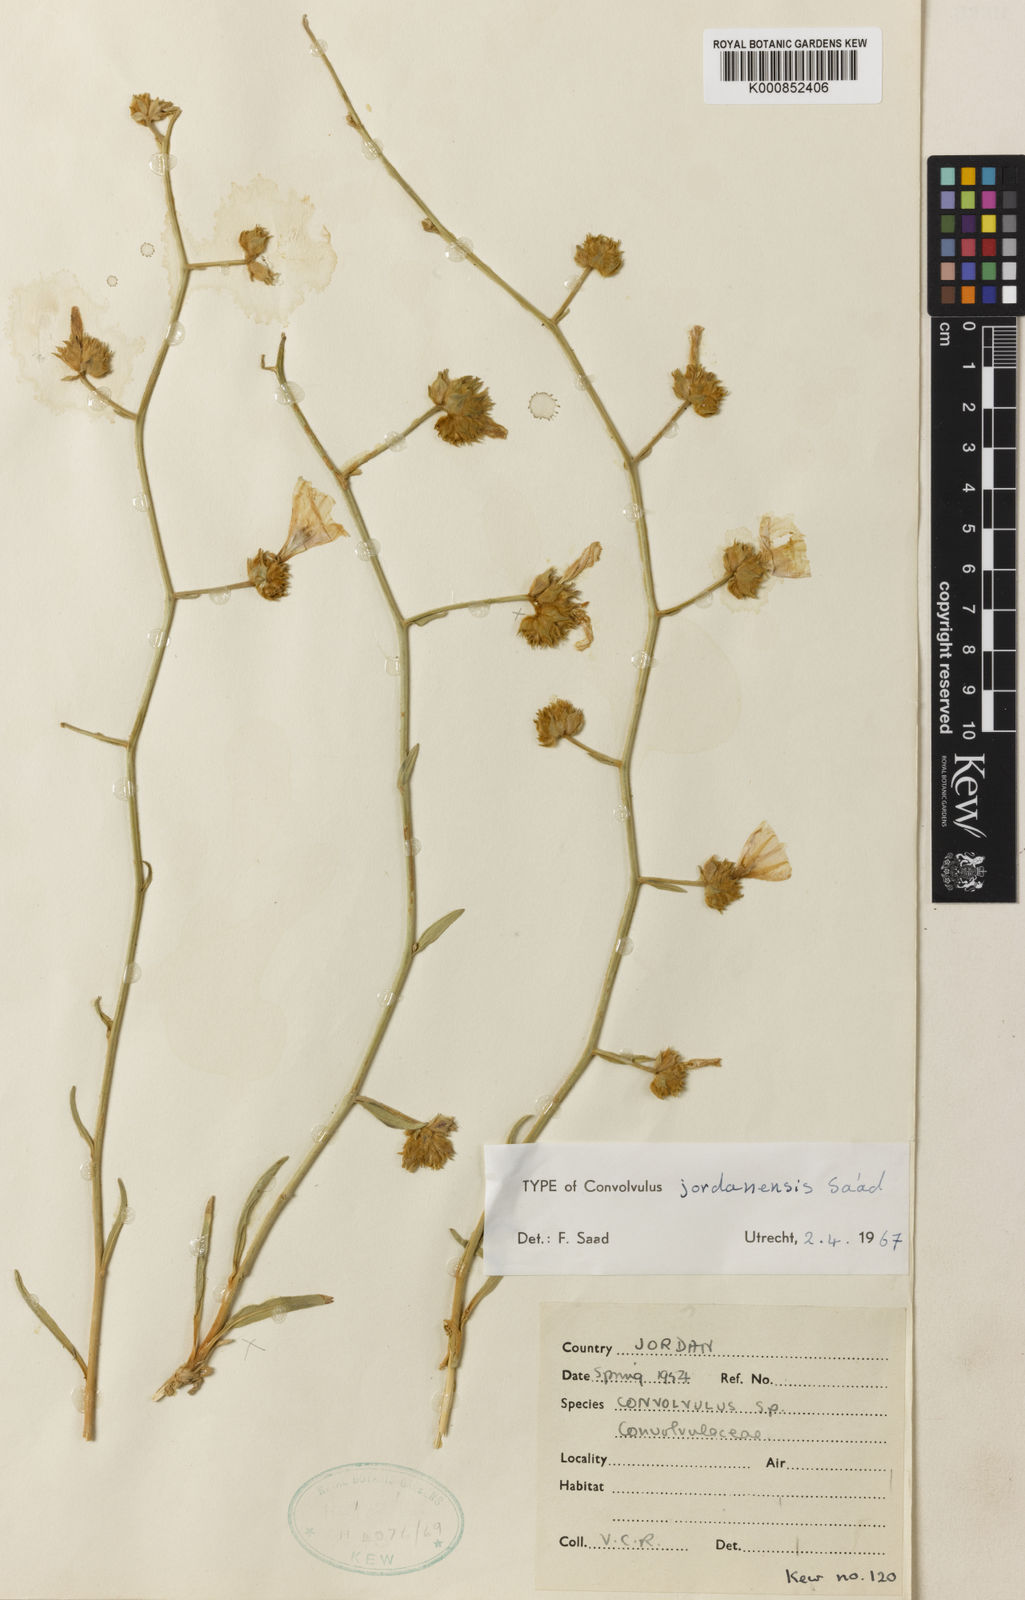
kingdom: Plantae
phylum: Tracheophyta
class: Magnoliopsida
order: Solanales
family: Convolvulaceae
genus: Convolvulus
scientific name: Convolvulus jordanensis
